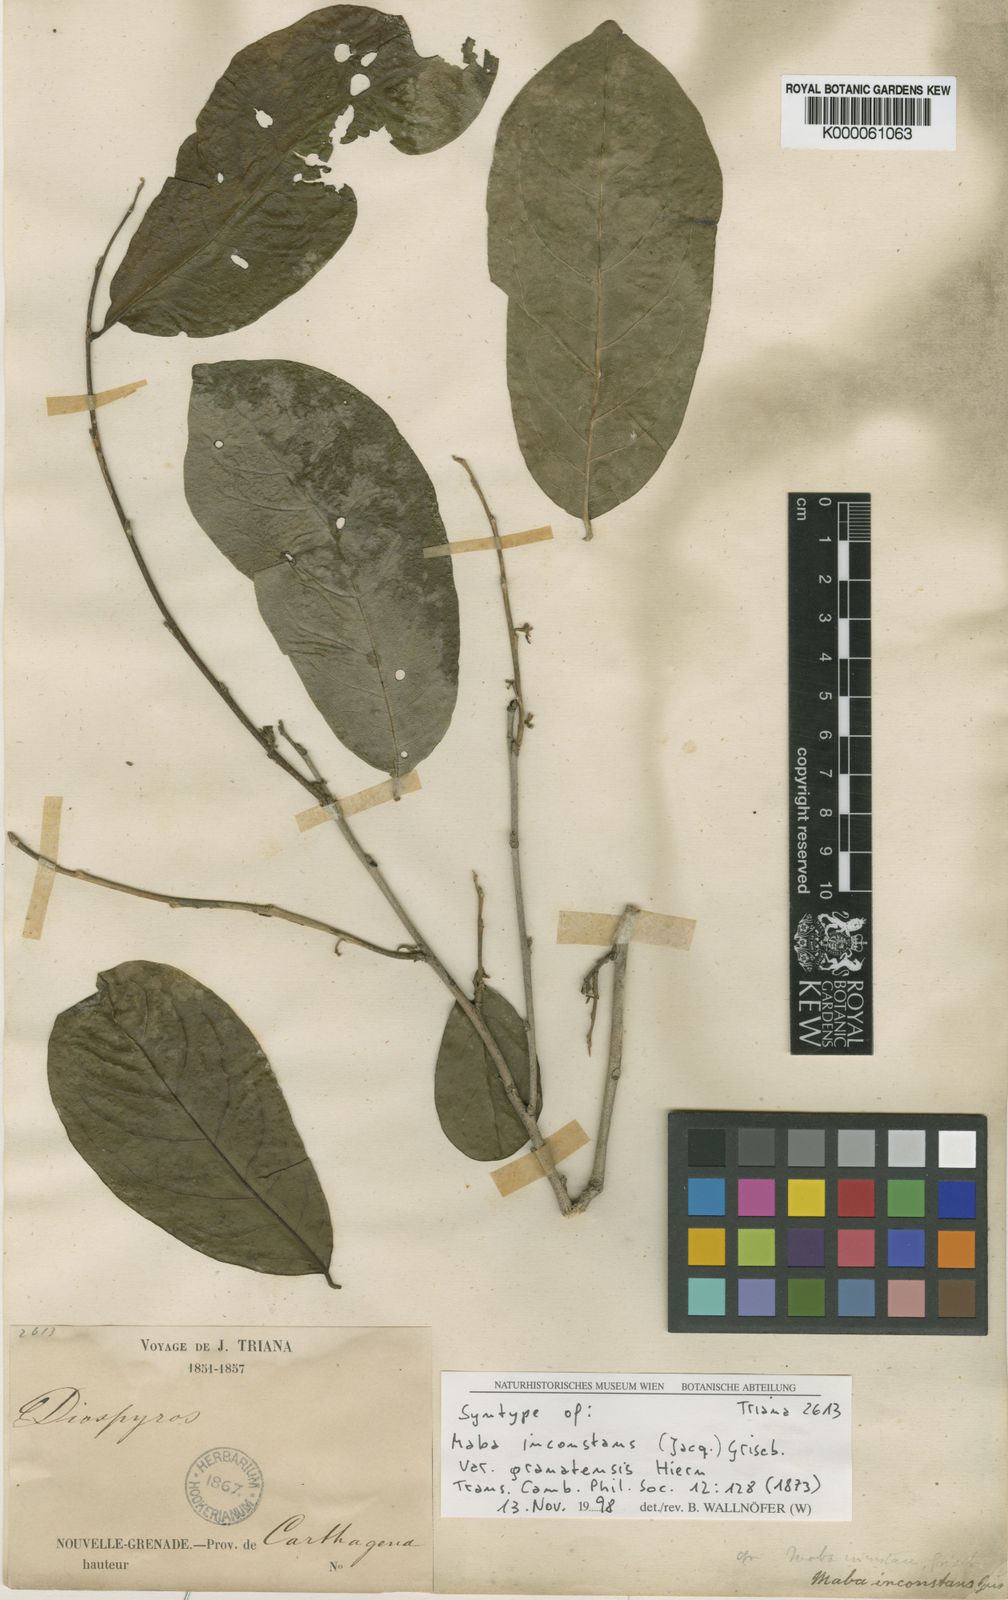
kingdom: Plantae
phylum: Tracheophyta
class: Magnoliopsida
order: Ericales
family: Ebenaceae
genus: Diospyros
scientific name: Diospyros inconstans
